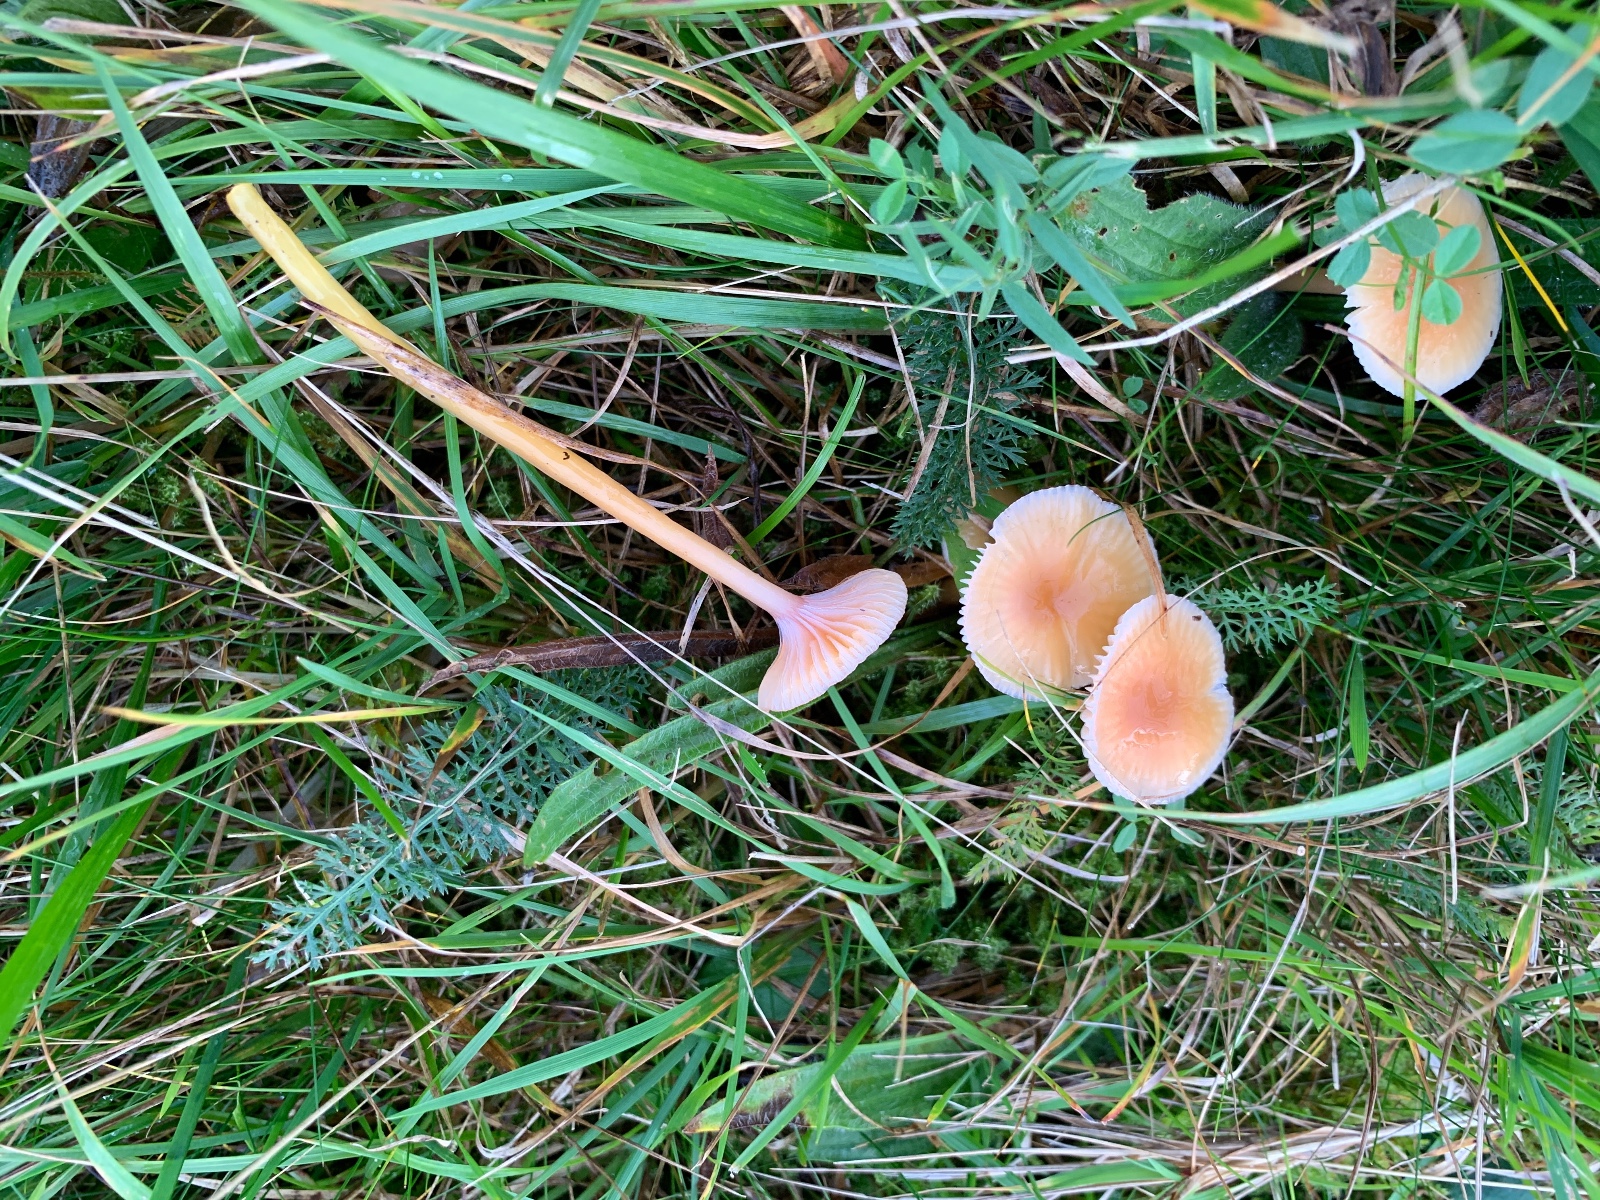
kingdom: Fungi
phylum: Basidiomycota
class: Agaricomycetes
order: Agaricales
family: Hygrophoraceae
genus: Gliophorus
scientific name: Gliophorus laetus
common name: brusk-vokshat
